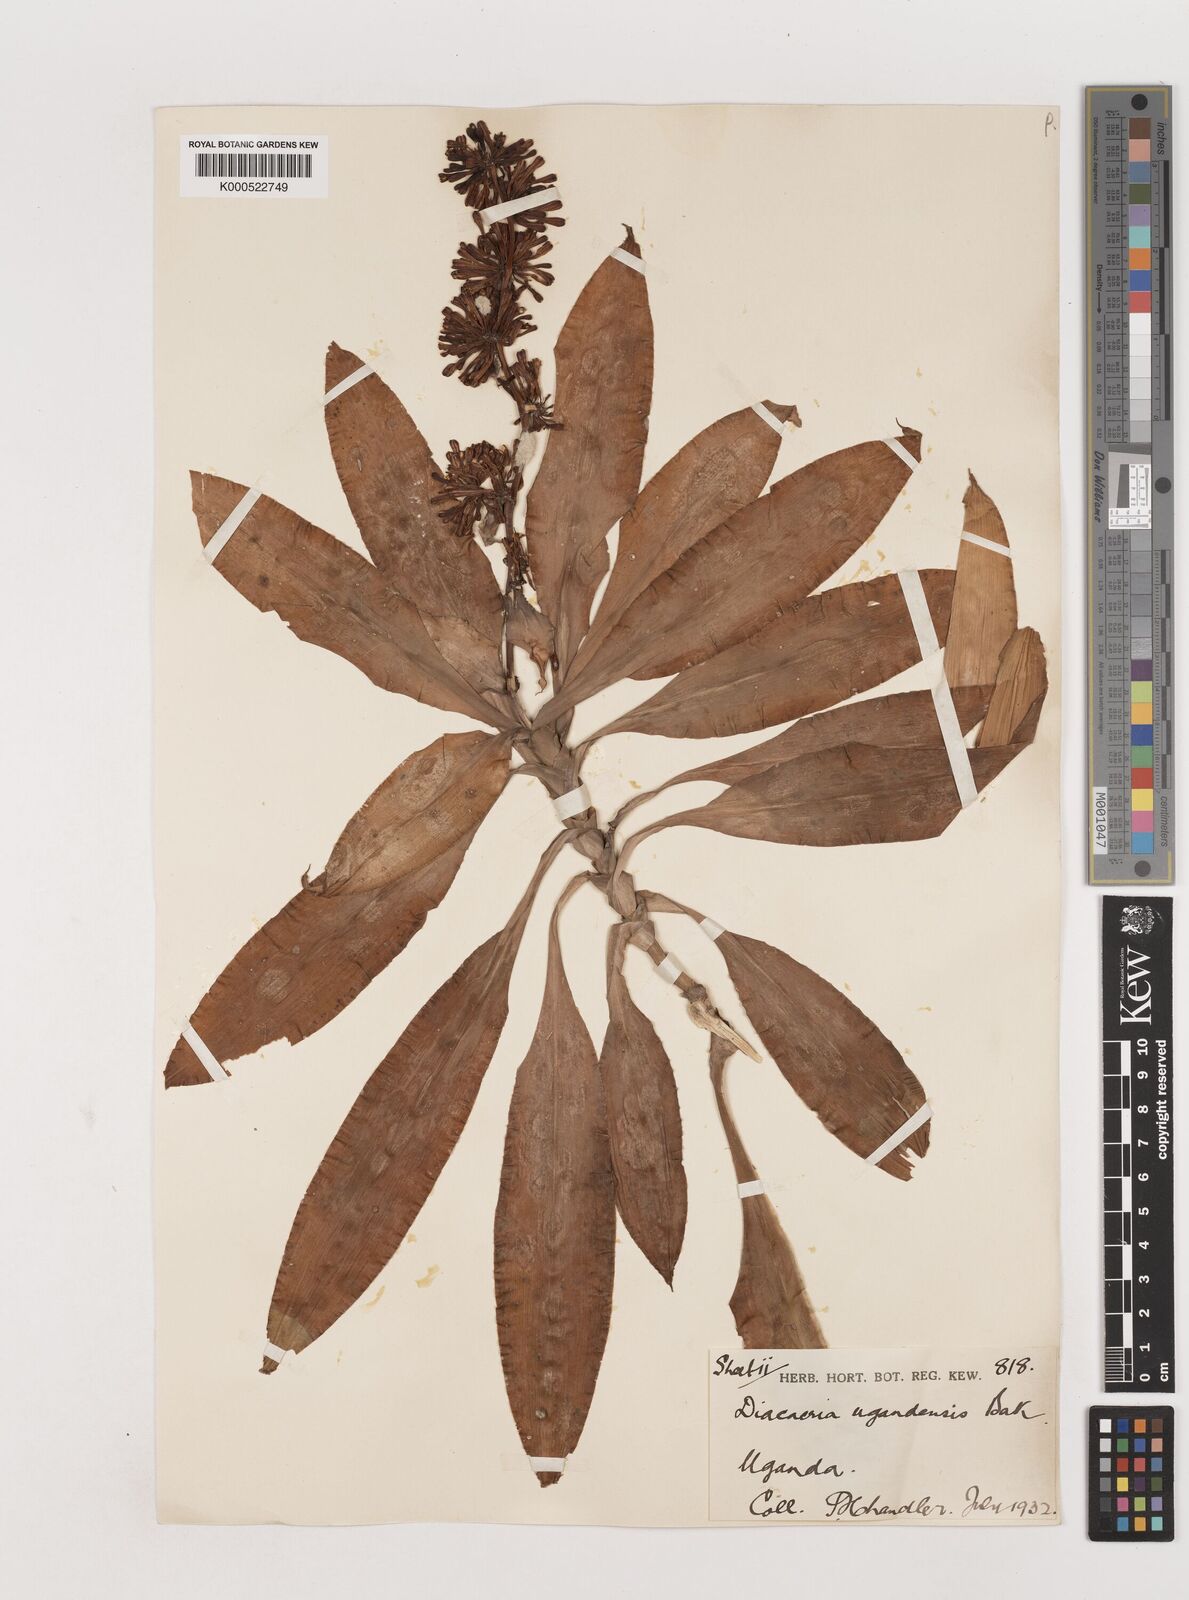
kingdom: Plantae
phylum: Tracheophyta
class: Liliopsida
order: Asparagales
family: Asparagaceae
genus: Dracaena
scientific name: Dracaena fragrans
